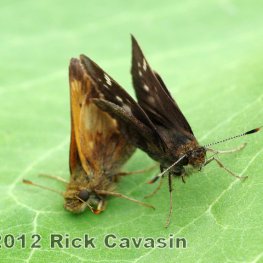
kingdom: Animalia
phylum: Arthropoda
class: Insecta
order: Lepidoptera
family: Hesperiidae
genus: Lon
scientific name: Lon hobomok
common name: Hobomok Skipper
